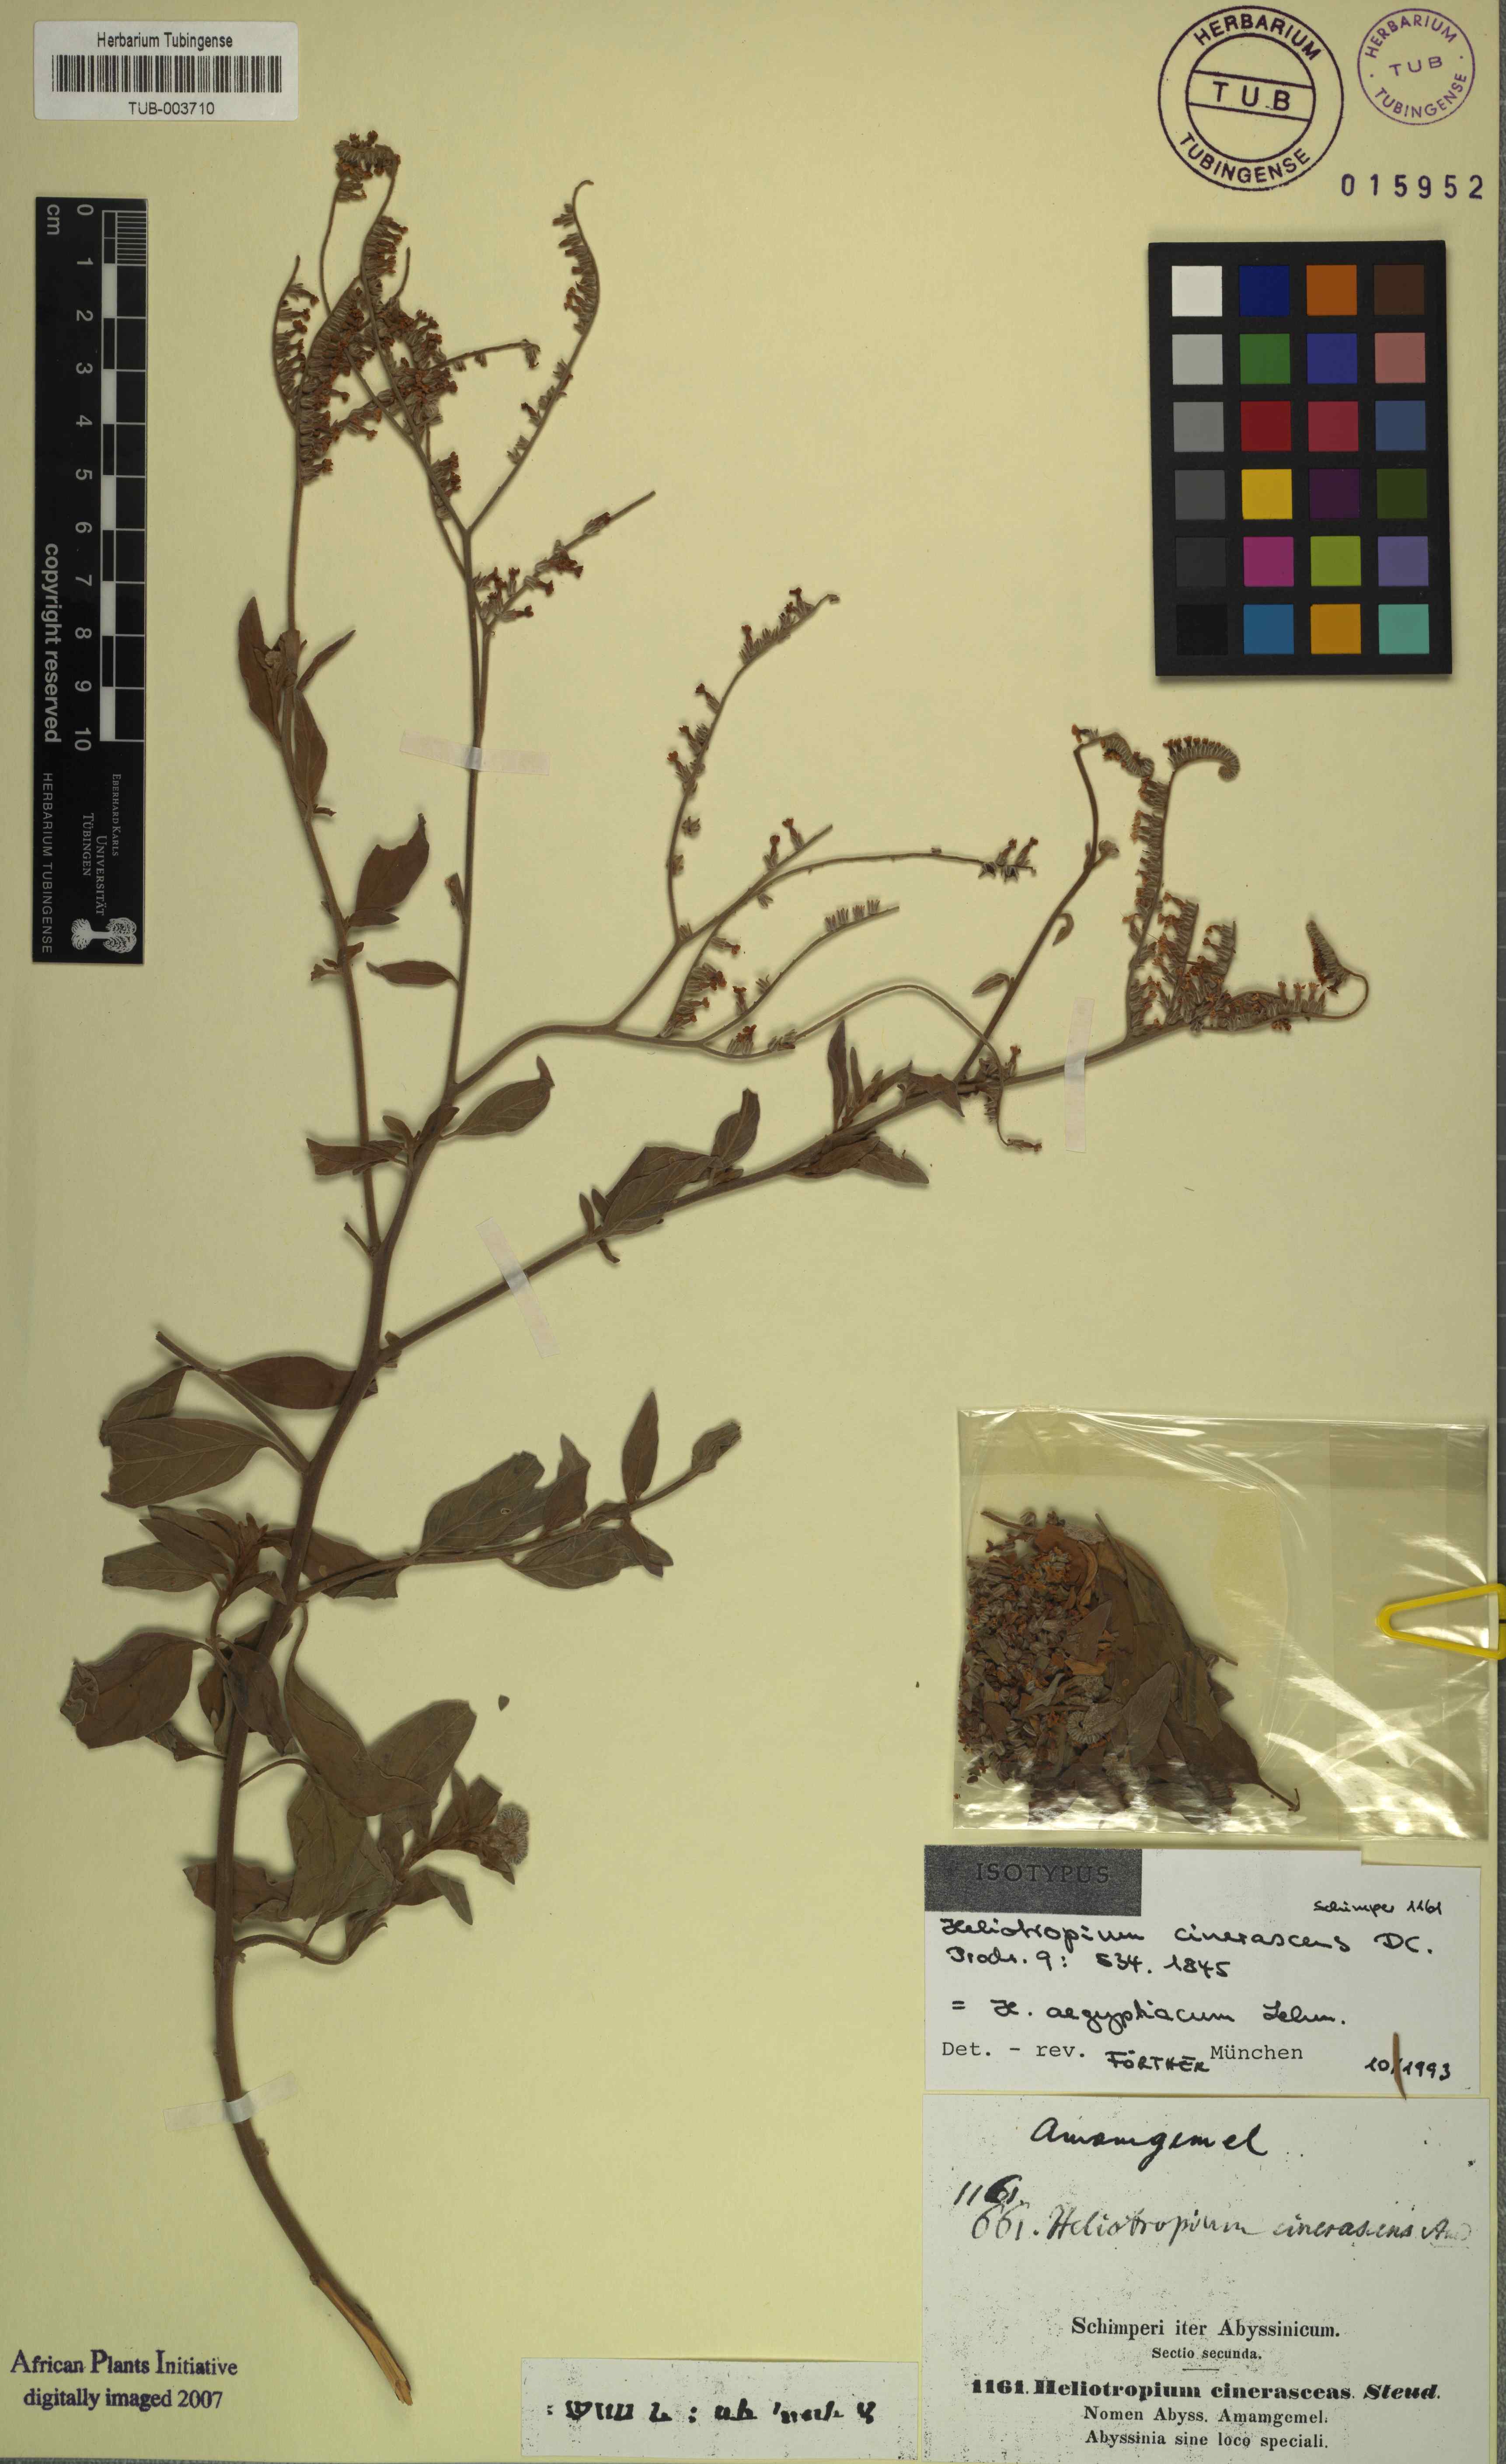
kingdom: Plantae
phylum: Tracheophyta
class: Magnoliopsida
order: Boraginales
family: Heliotropiaceae
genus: Heliotropium
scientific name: Heliotropium aegyptiacum
